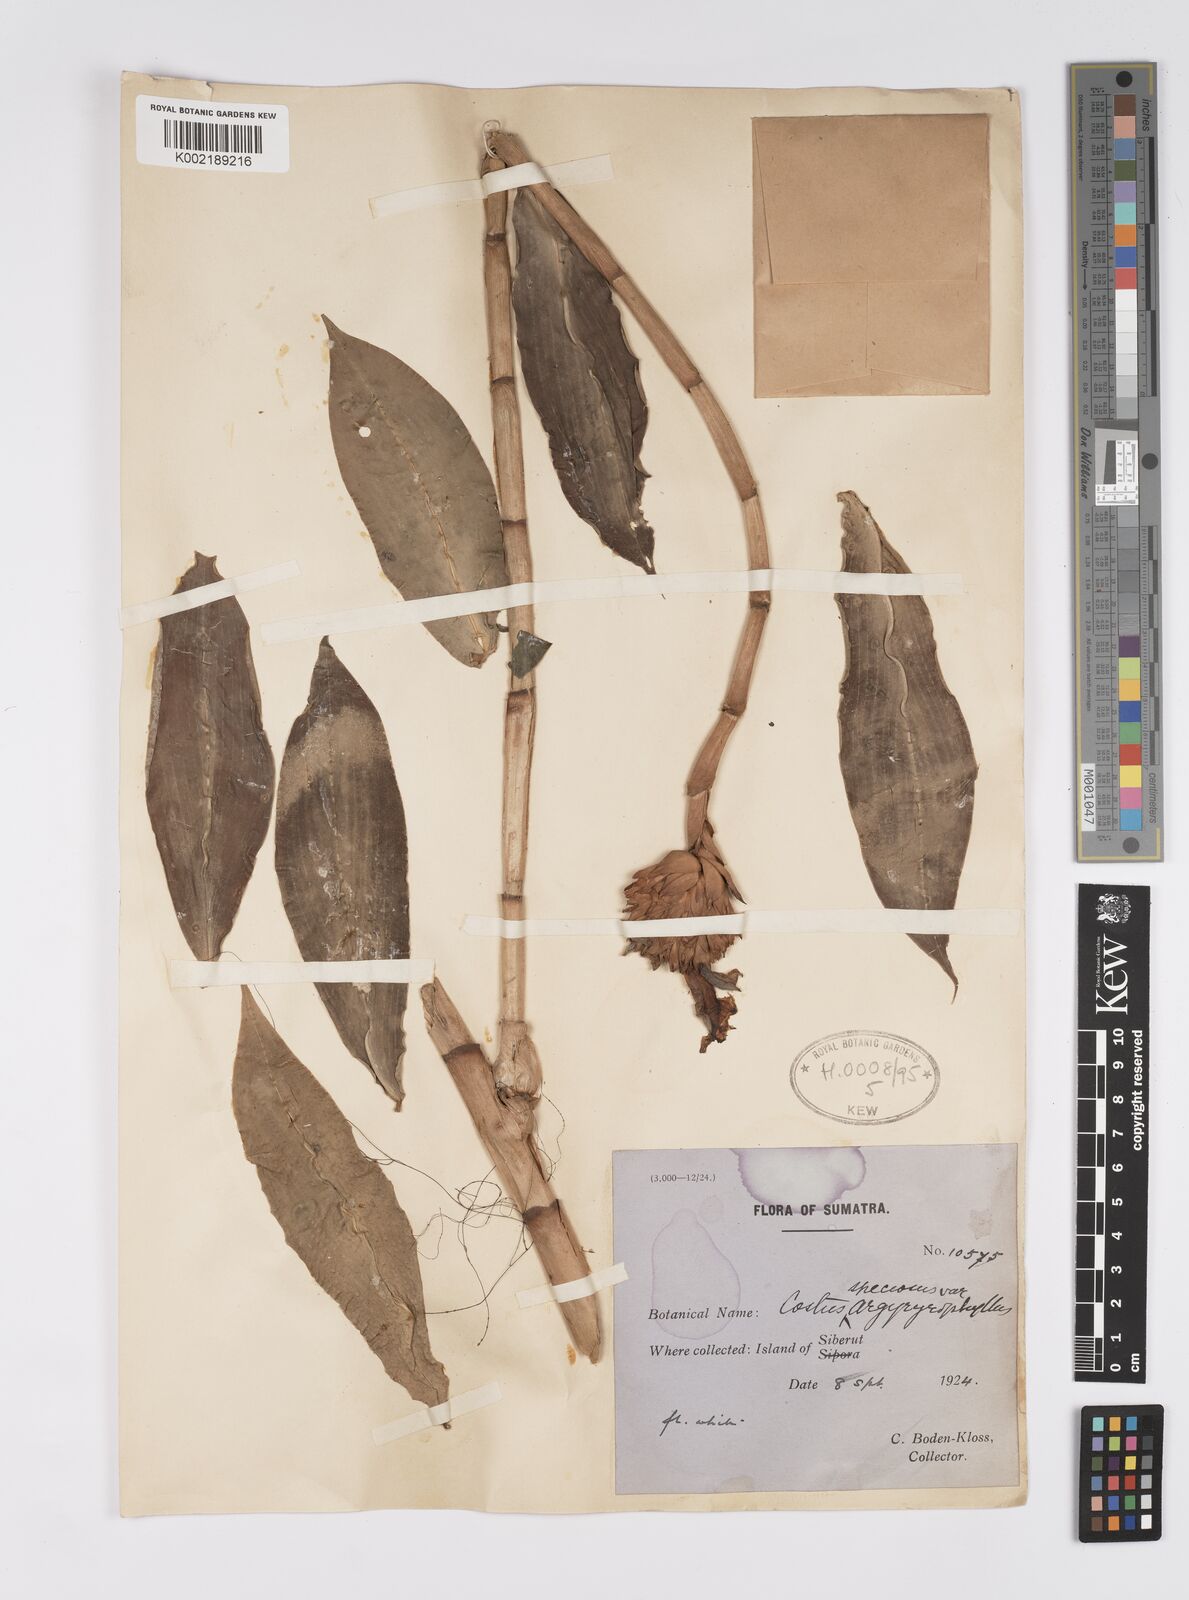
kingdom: Plantae
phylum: Tracheophyta
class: Liliopsida
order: Zingiberales
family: Costaceae
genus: Hellenia
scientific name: Hellenia speciosa
